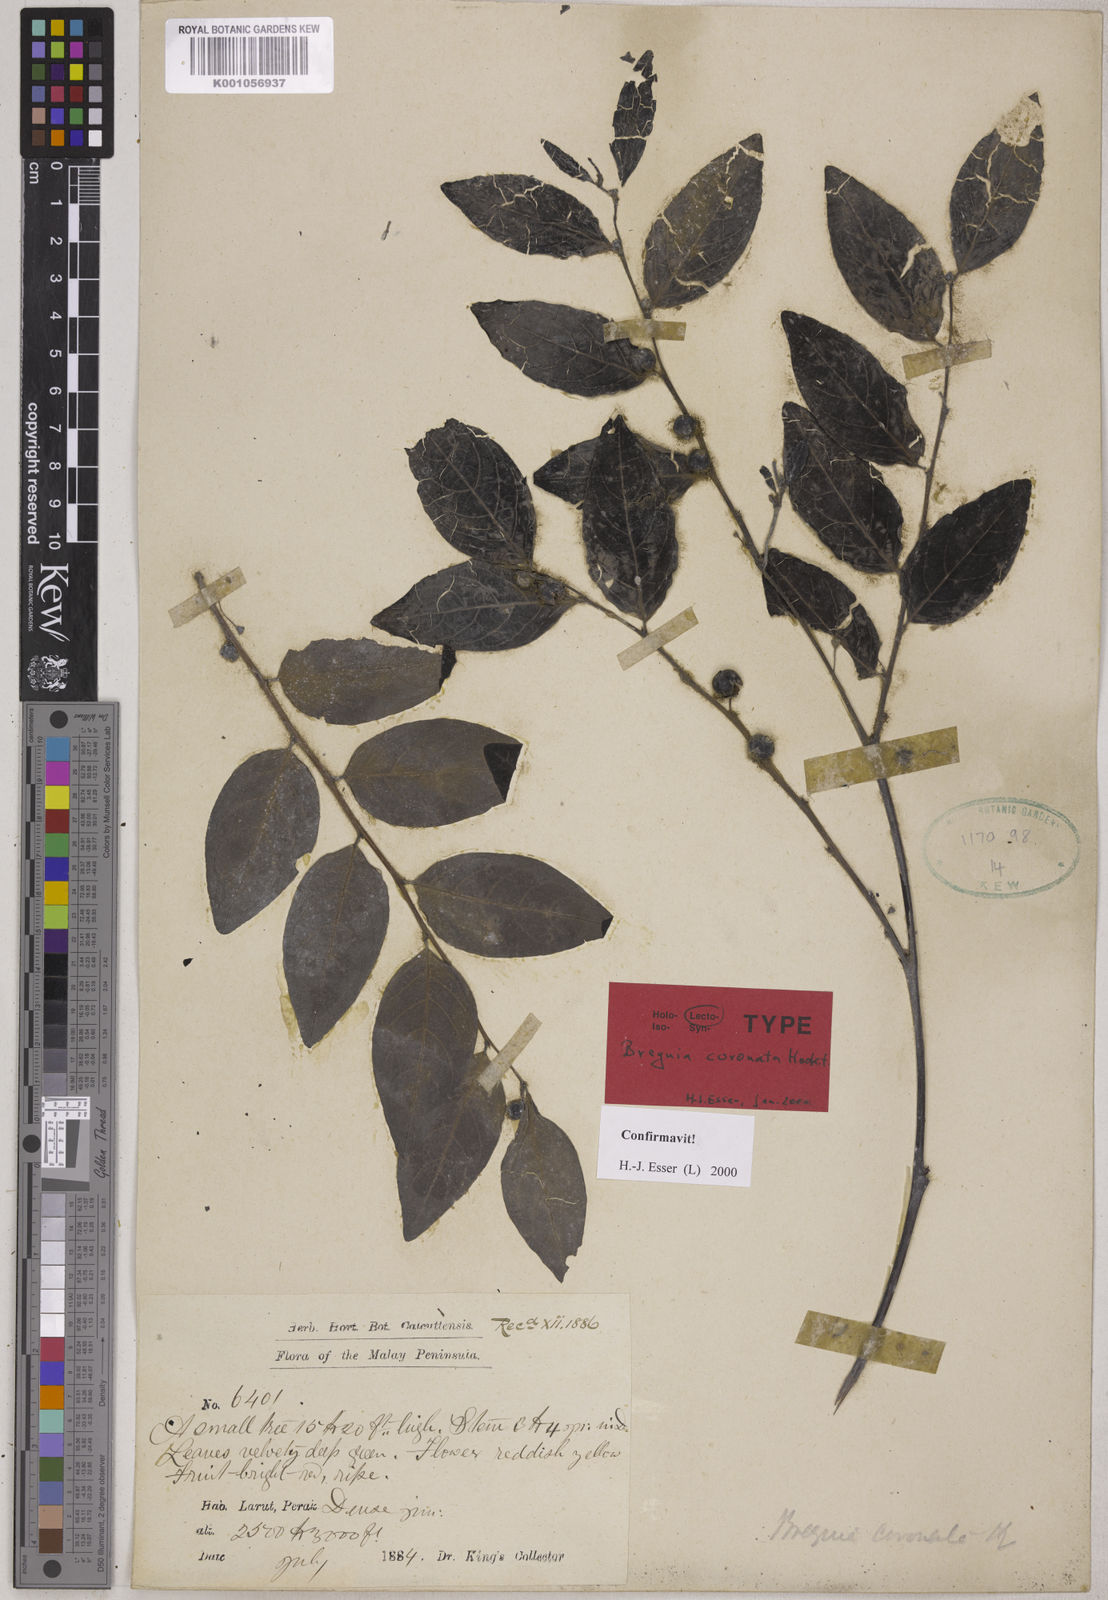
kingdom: Plantae
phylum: Tracheophyta
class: Magnoliopsida
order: Malpighiales
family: Phyllanthaceae
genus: Breynia
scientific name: Breynia coronata
